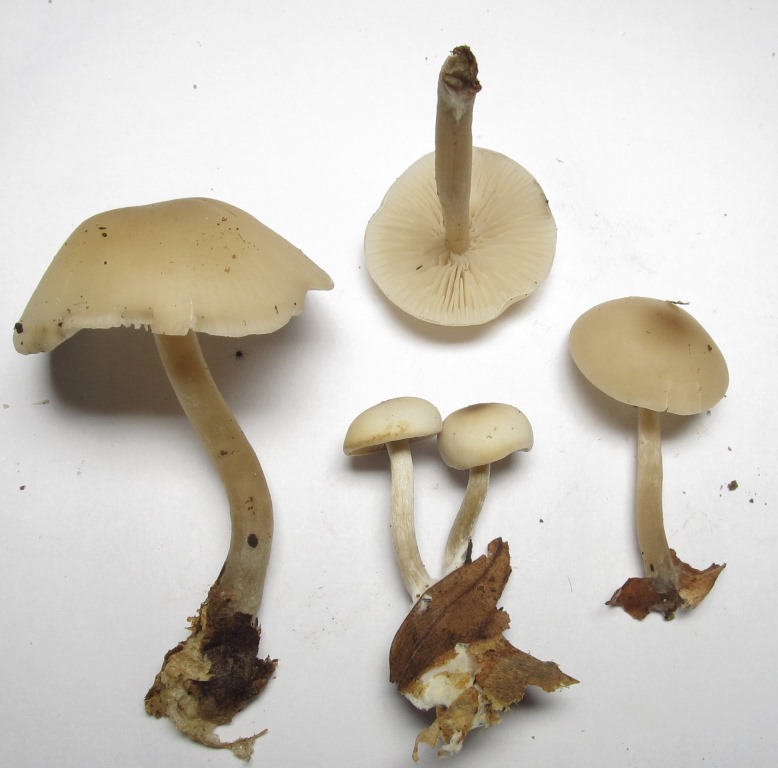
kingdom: Fungi
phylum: Basidiomycota
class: Agaricomycetes
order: Agaricales
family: Tricholomataceae
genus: Clitocybe
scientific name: Clitocybe metachroa
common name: grå tragthat
